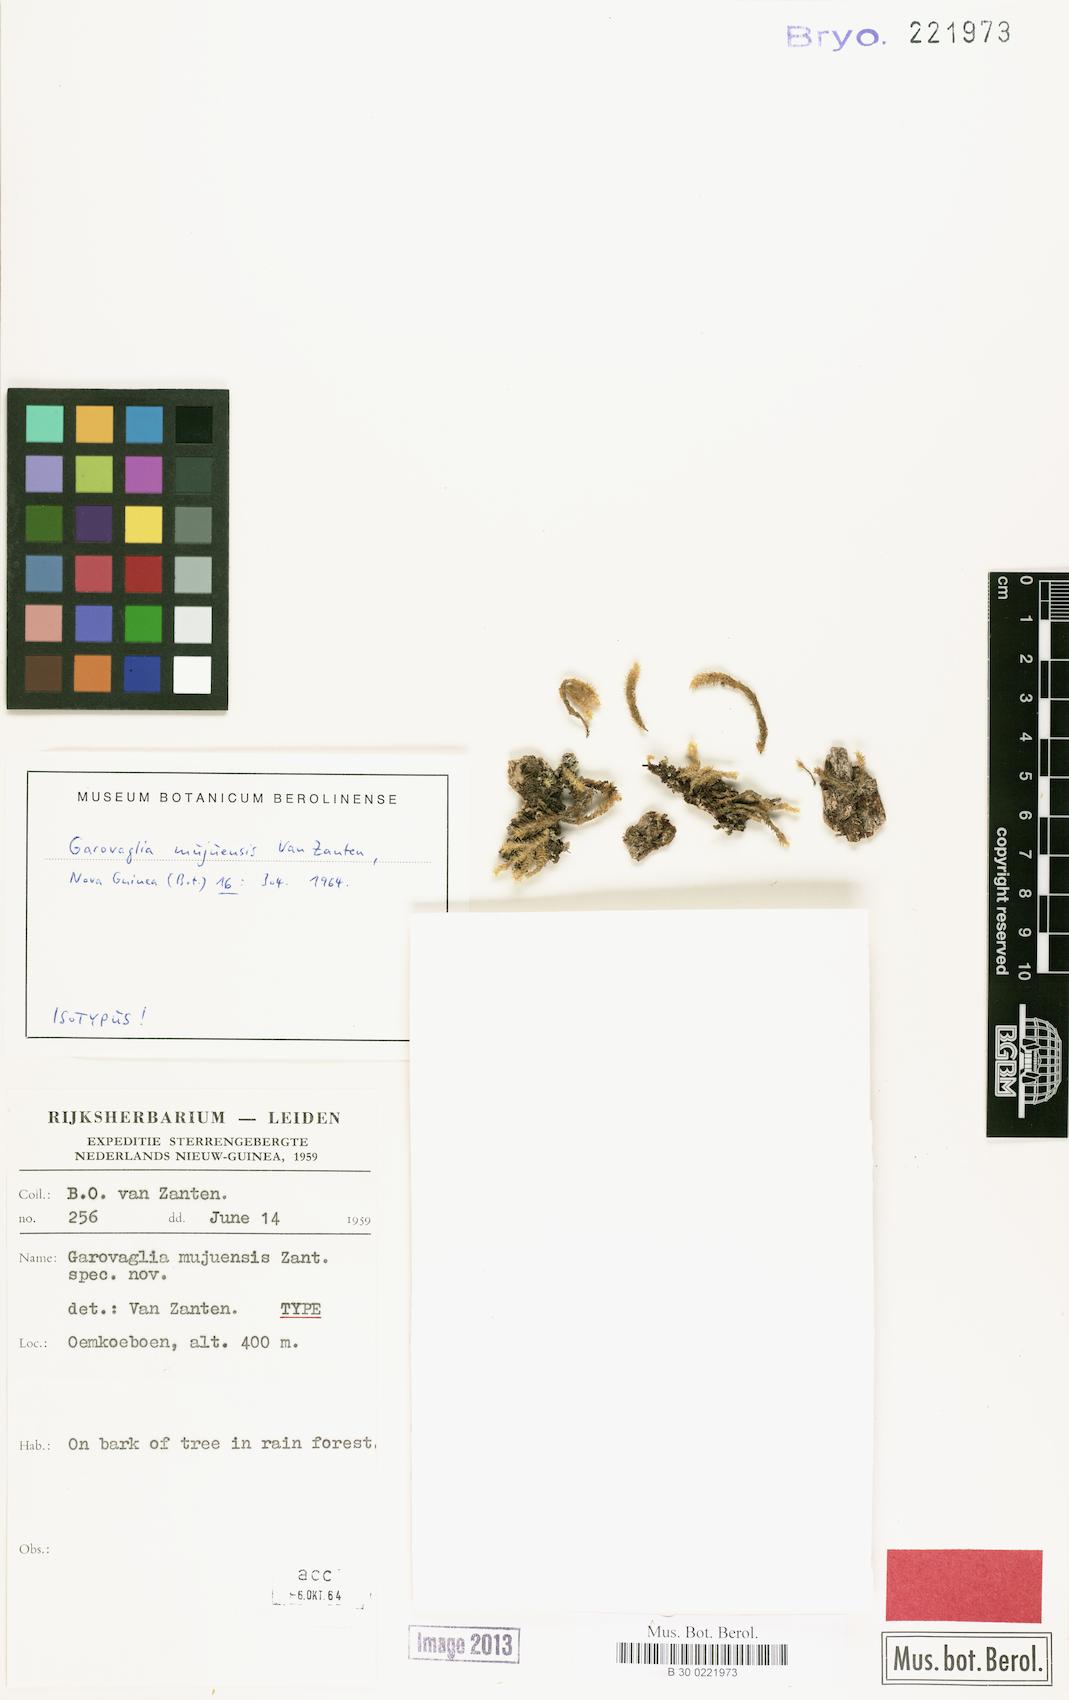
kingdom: Plantae
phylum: Bryophyta
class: Bryopsida
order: Ptychomniales
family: Ptychomniaceae
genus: Garovaglia
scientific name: Garovaglia mujuensis
